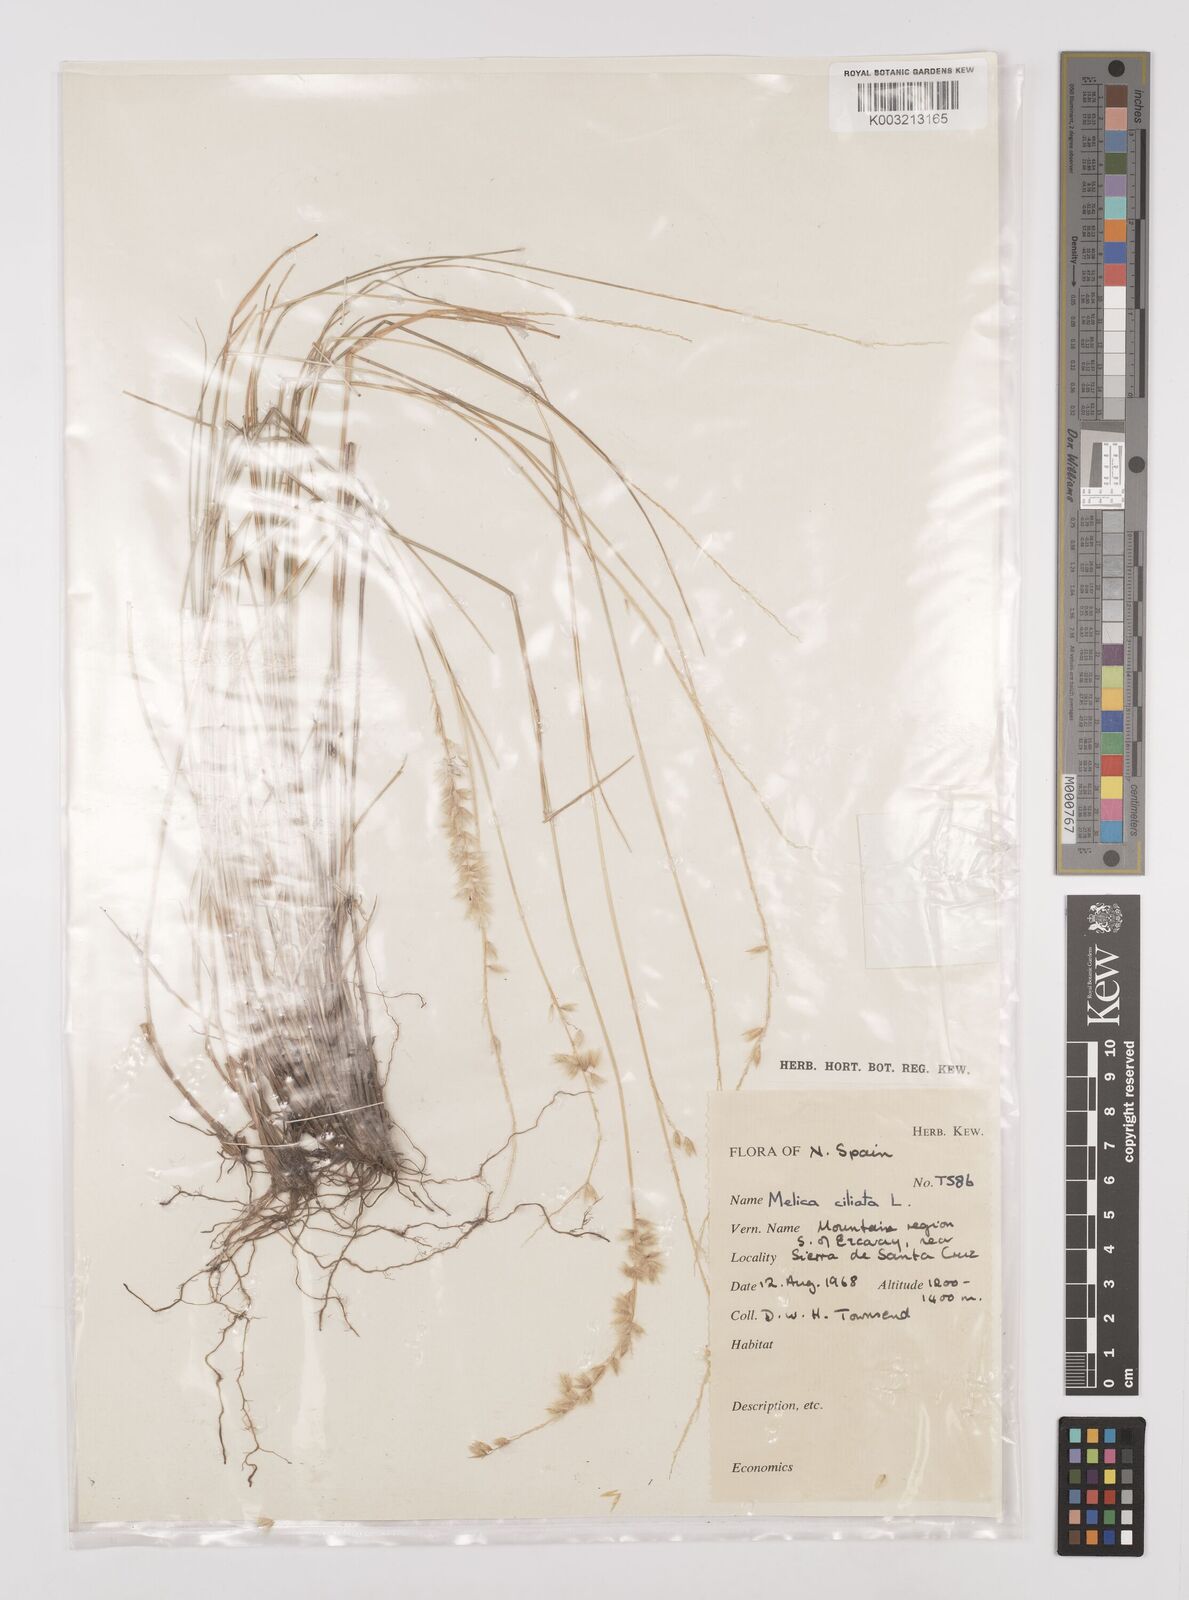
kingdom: Plantae
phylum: Tracheophyta
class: Liliopsida
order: Poales
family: Poaceae
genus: Melica
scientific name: Melica ciliata
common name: Hairy melicgrass
